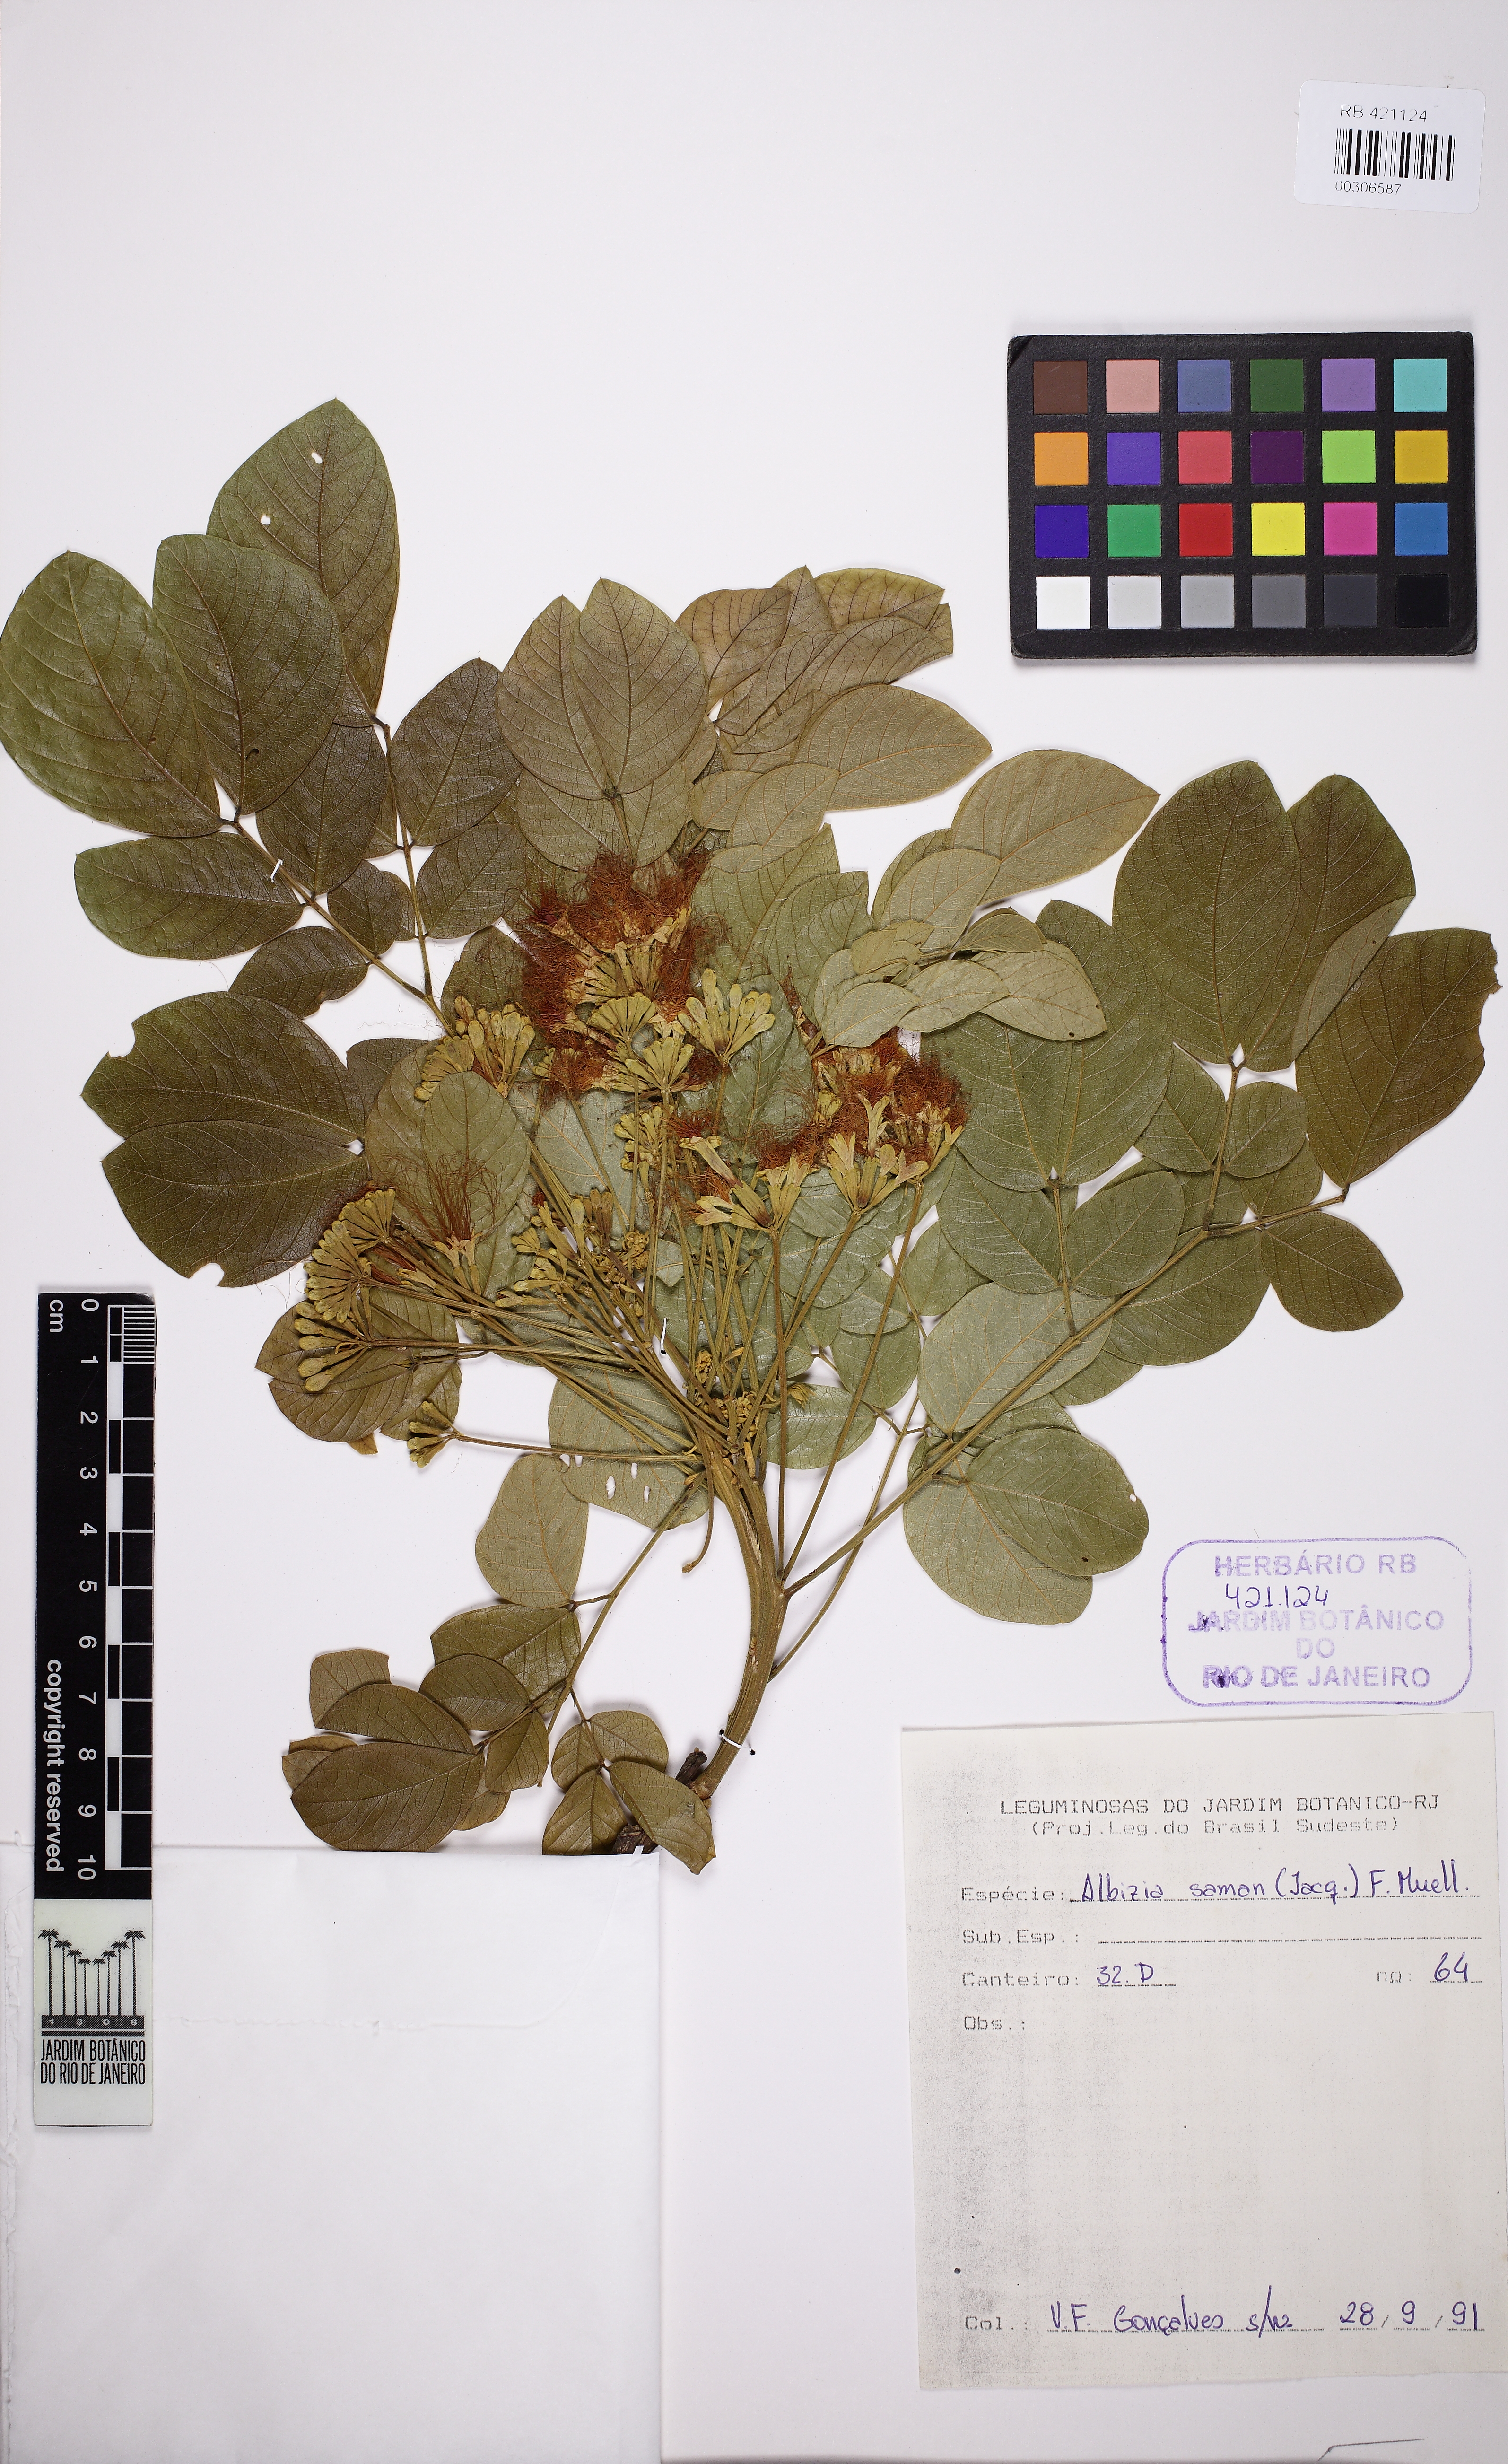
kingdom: Plantae
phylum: Tracheophyta
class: Magnoliopsida
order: Fabales
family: Fabaceae
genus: Samanea
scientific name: Samanea saman
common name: Raintree
